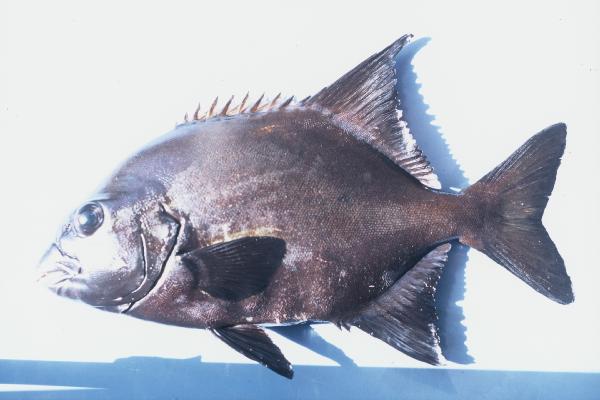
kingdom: Animalia
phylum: Chordata
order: Perciformes
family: Oplegnathidae
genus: Oplegnathus
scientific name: Oplegnathus robinsoni
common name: Natal knifejaw
